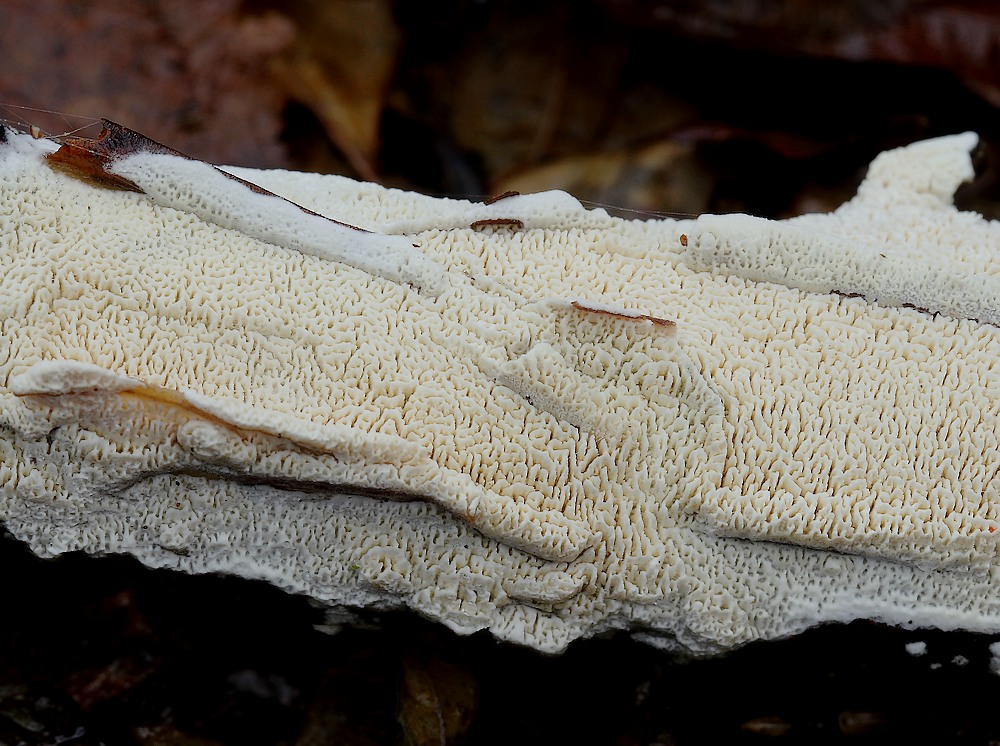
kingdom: Fungi
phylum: Basidiomycota
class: Agaricomycetes
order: Hymenochaetales
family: Schizoporaceae
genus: Xylodon
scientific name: Xylodon
